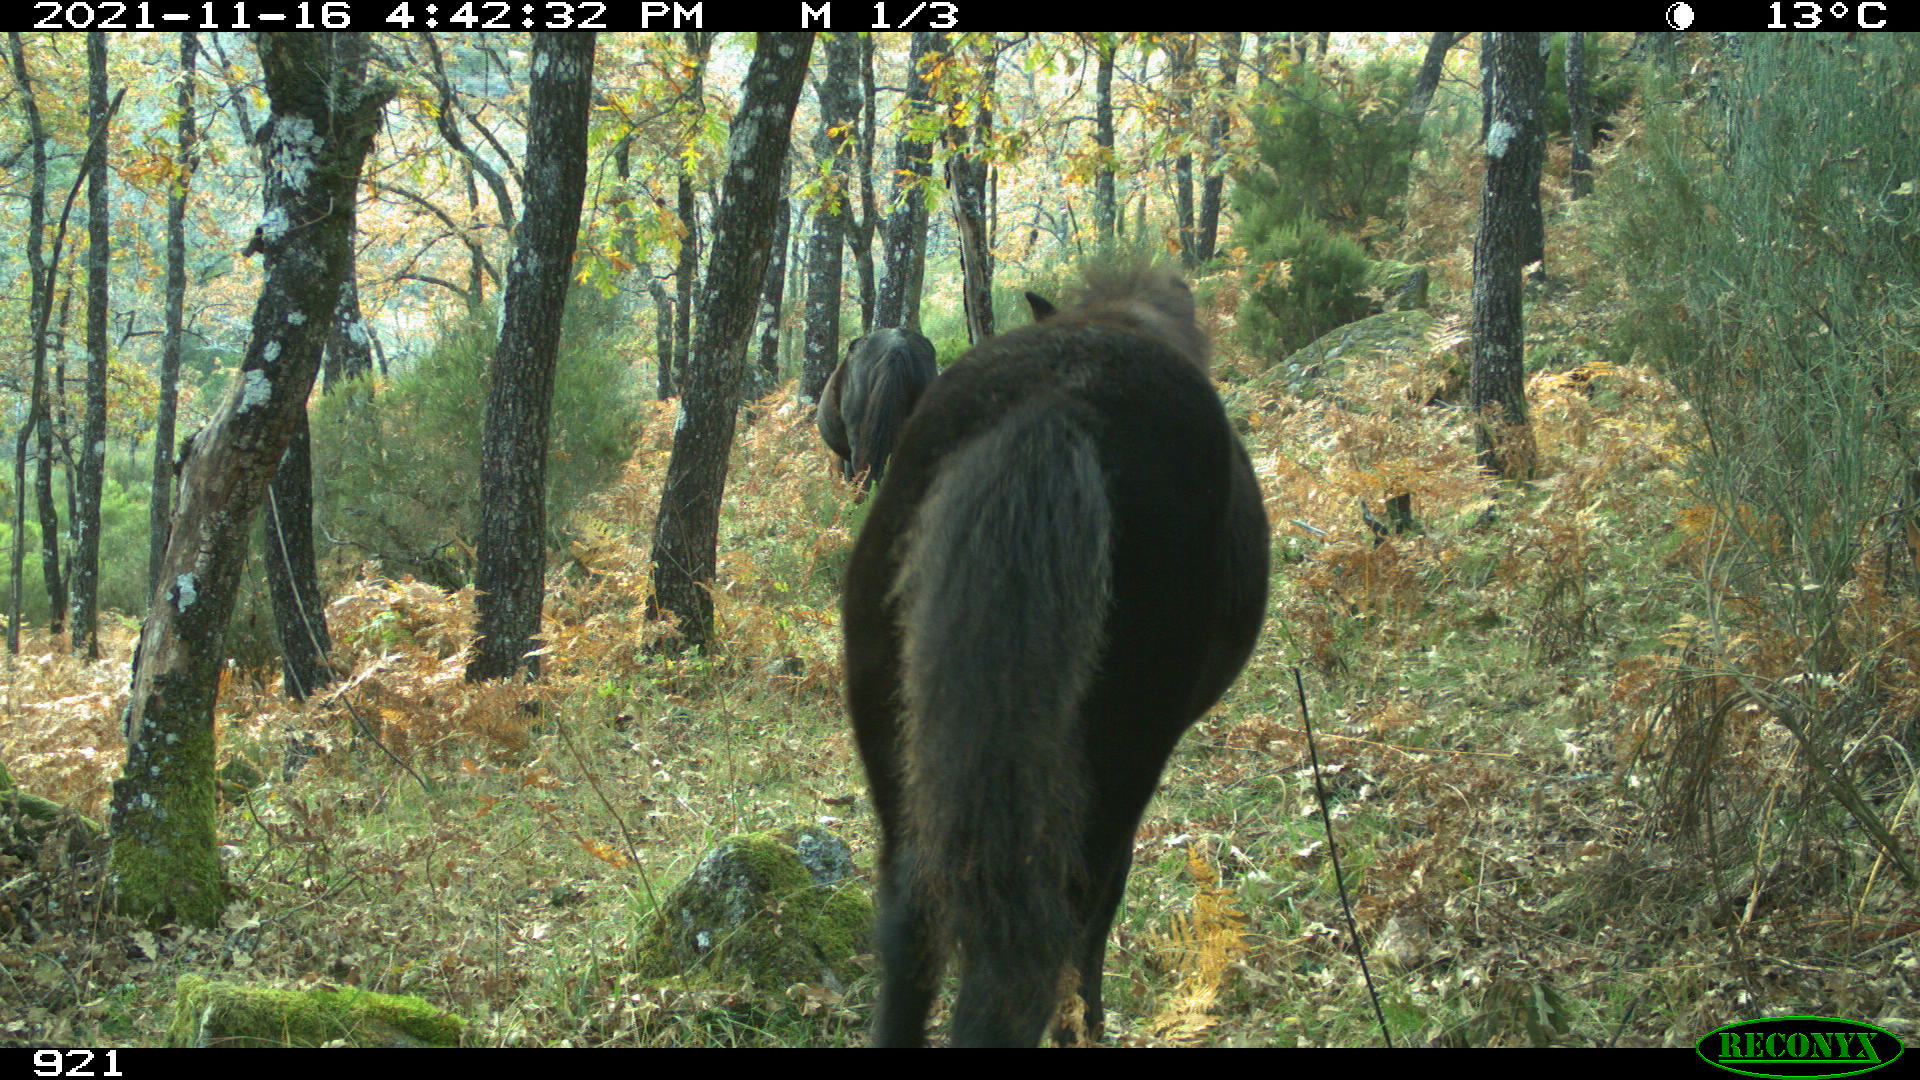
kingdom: Animalia
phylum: Chordata
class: Mammalia
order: Perissodactyla
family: Equidae
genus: Equus
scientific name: Equus caballus
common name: Horse
